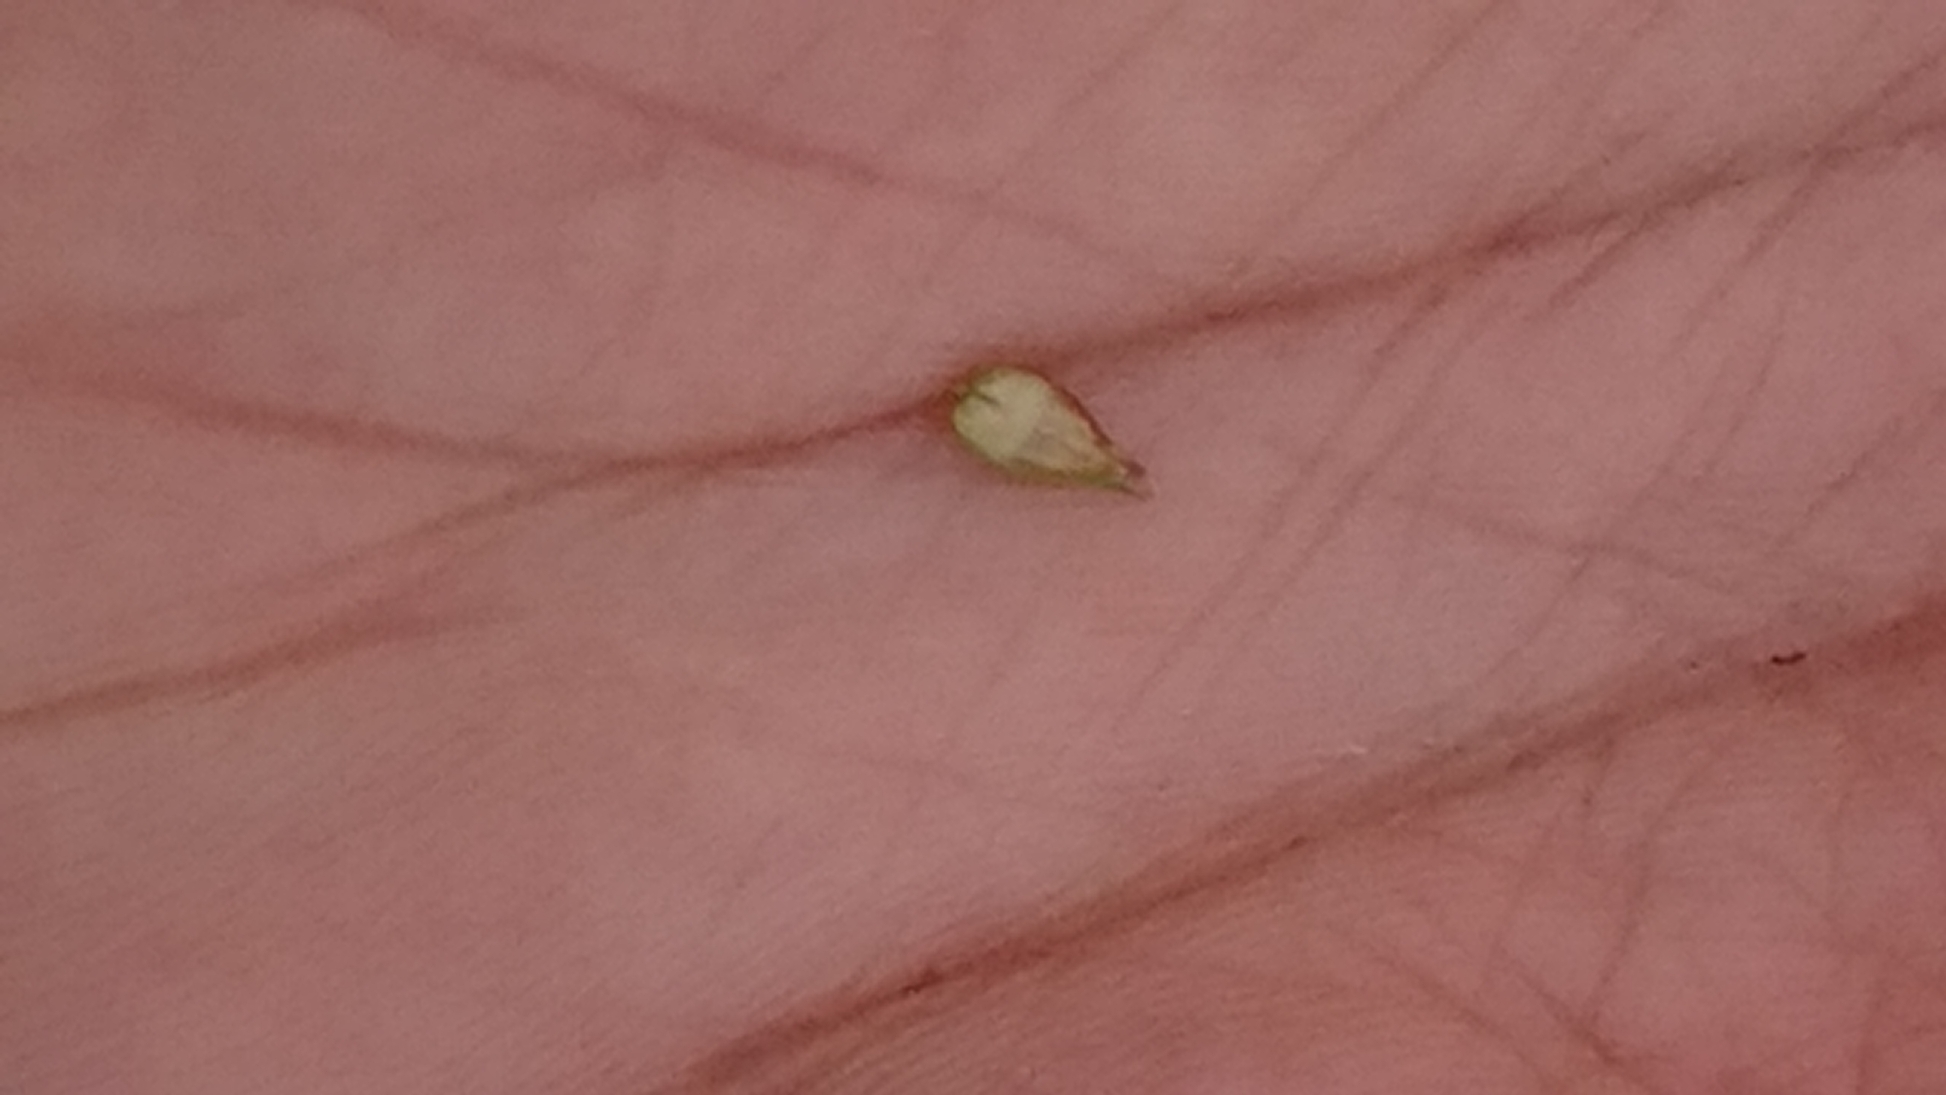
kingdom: Plantae
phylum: Tracheophyta
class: Liliopsida
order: Poales
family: Cyperaceae
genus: Carex
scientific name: Carex spicata
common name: Spidskapslet star
